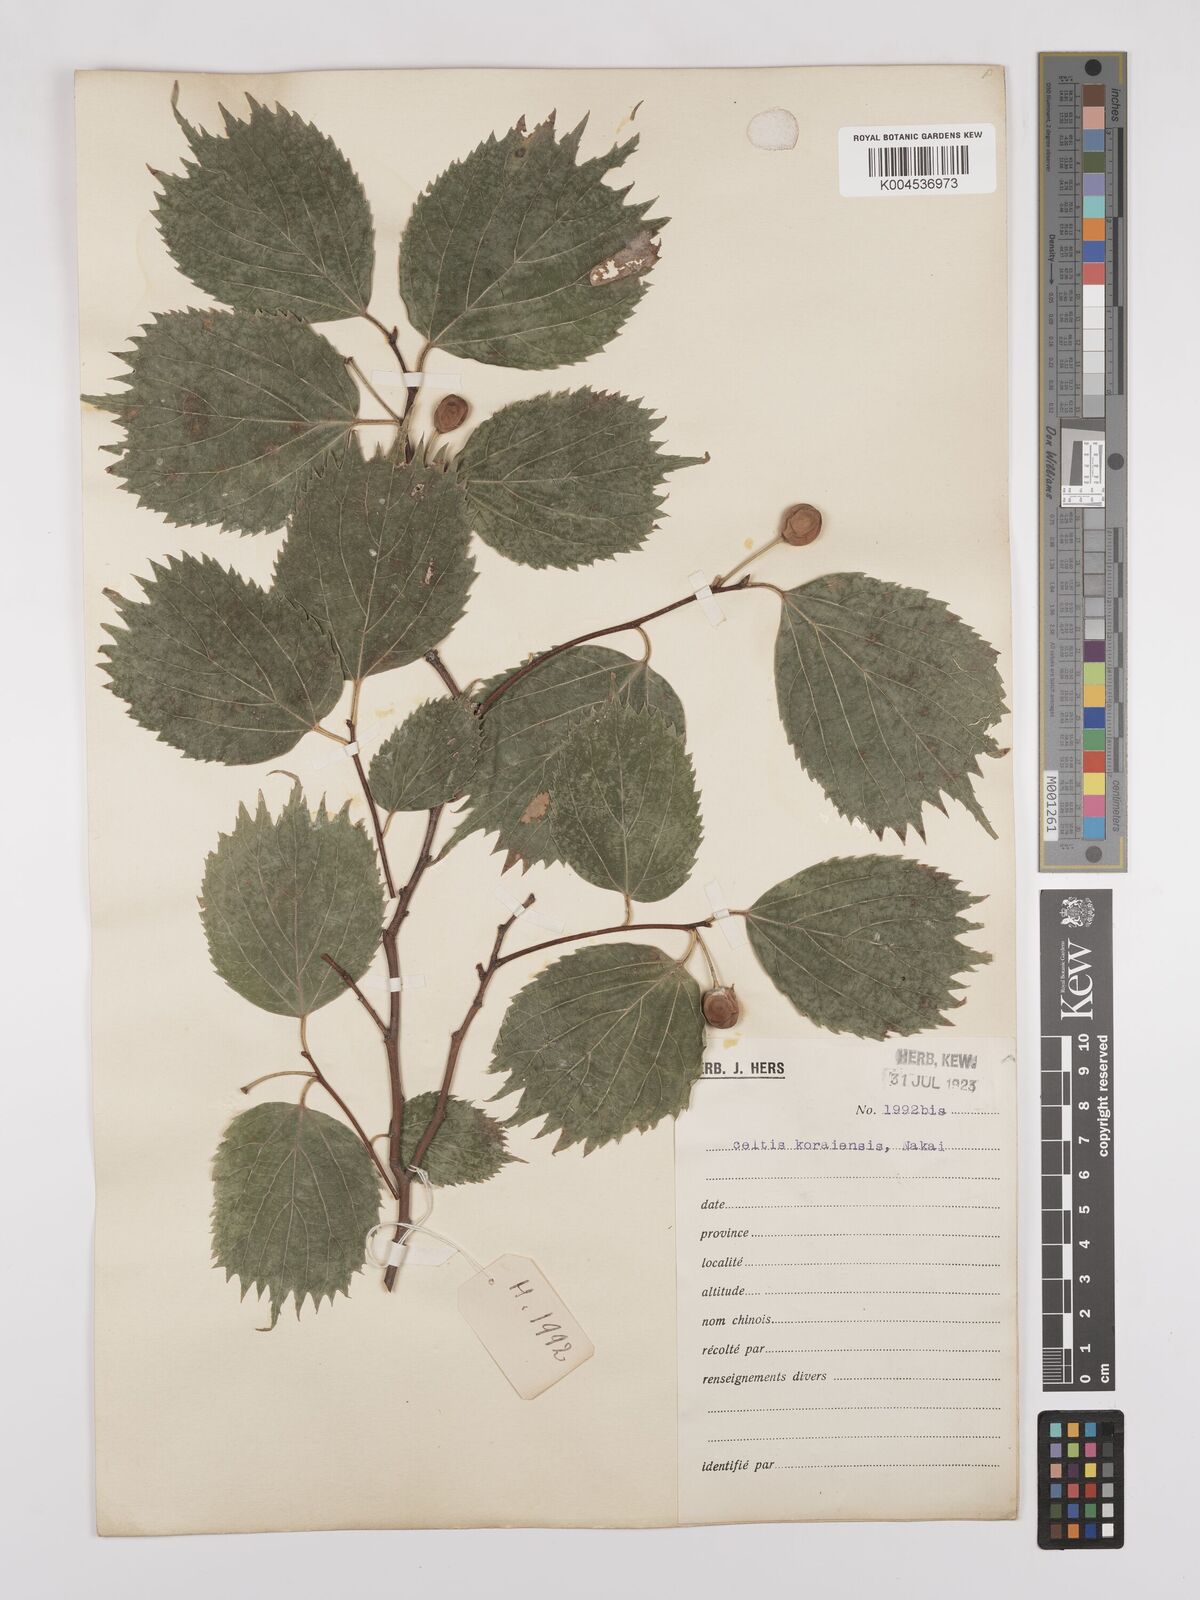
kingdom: Plantae
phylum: Tracheophyta
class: Magnoliopsida
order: Rosales
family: Cannabaceae
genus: Celtis
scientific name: Celtis koraiensis
